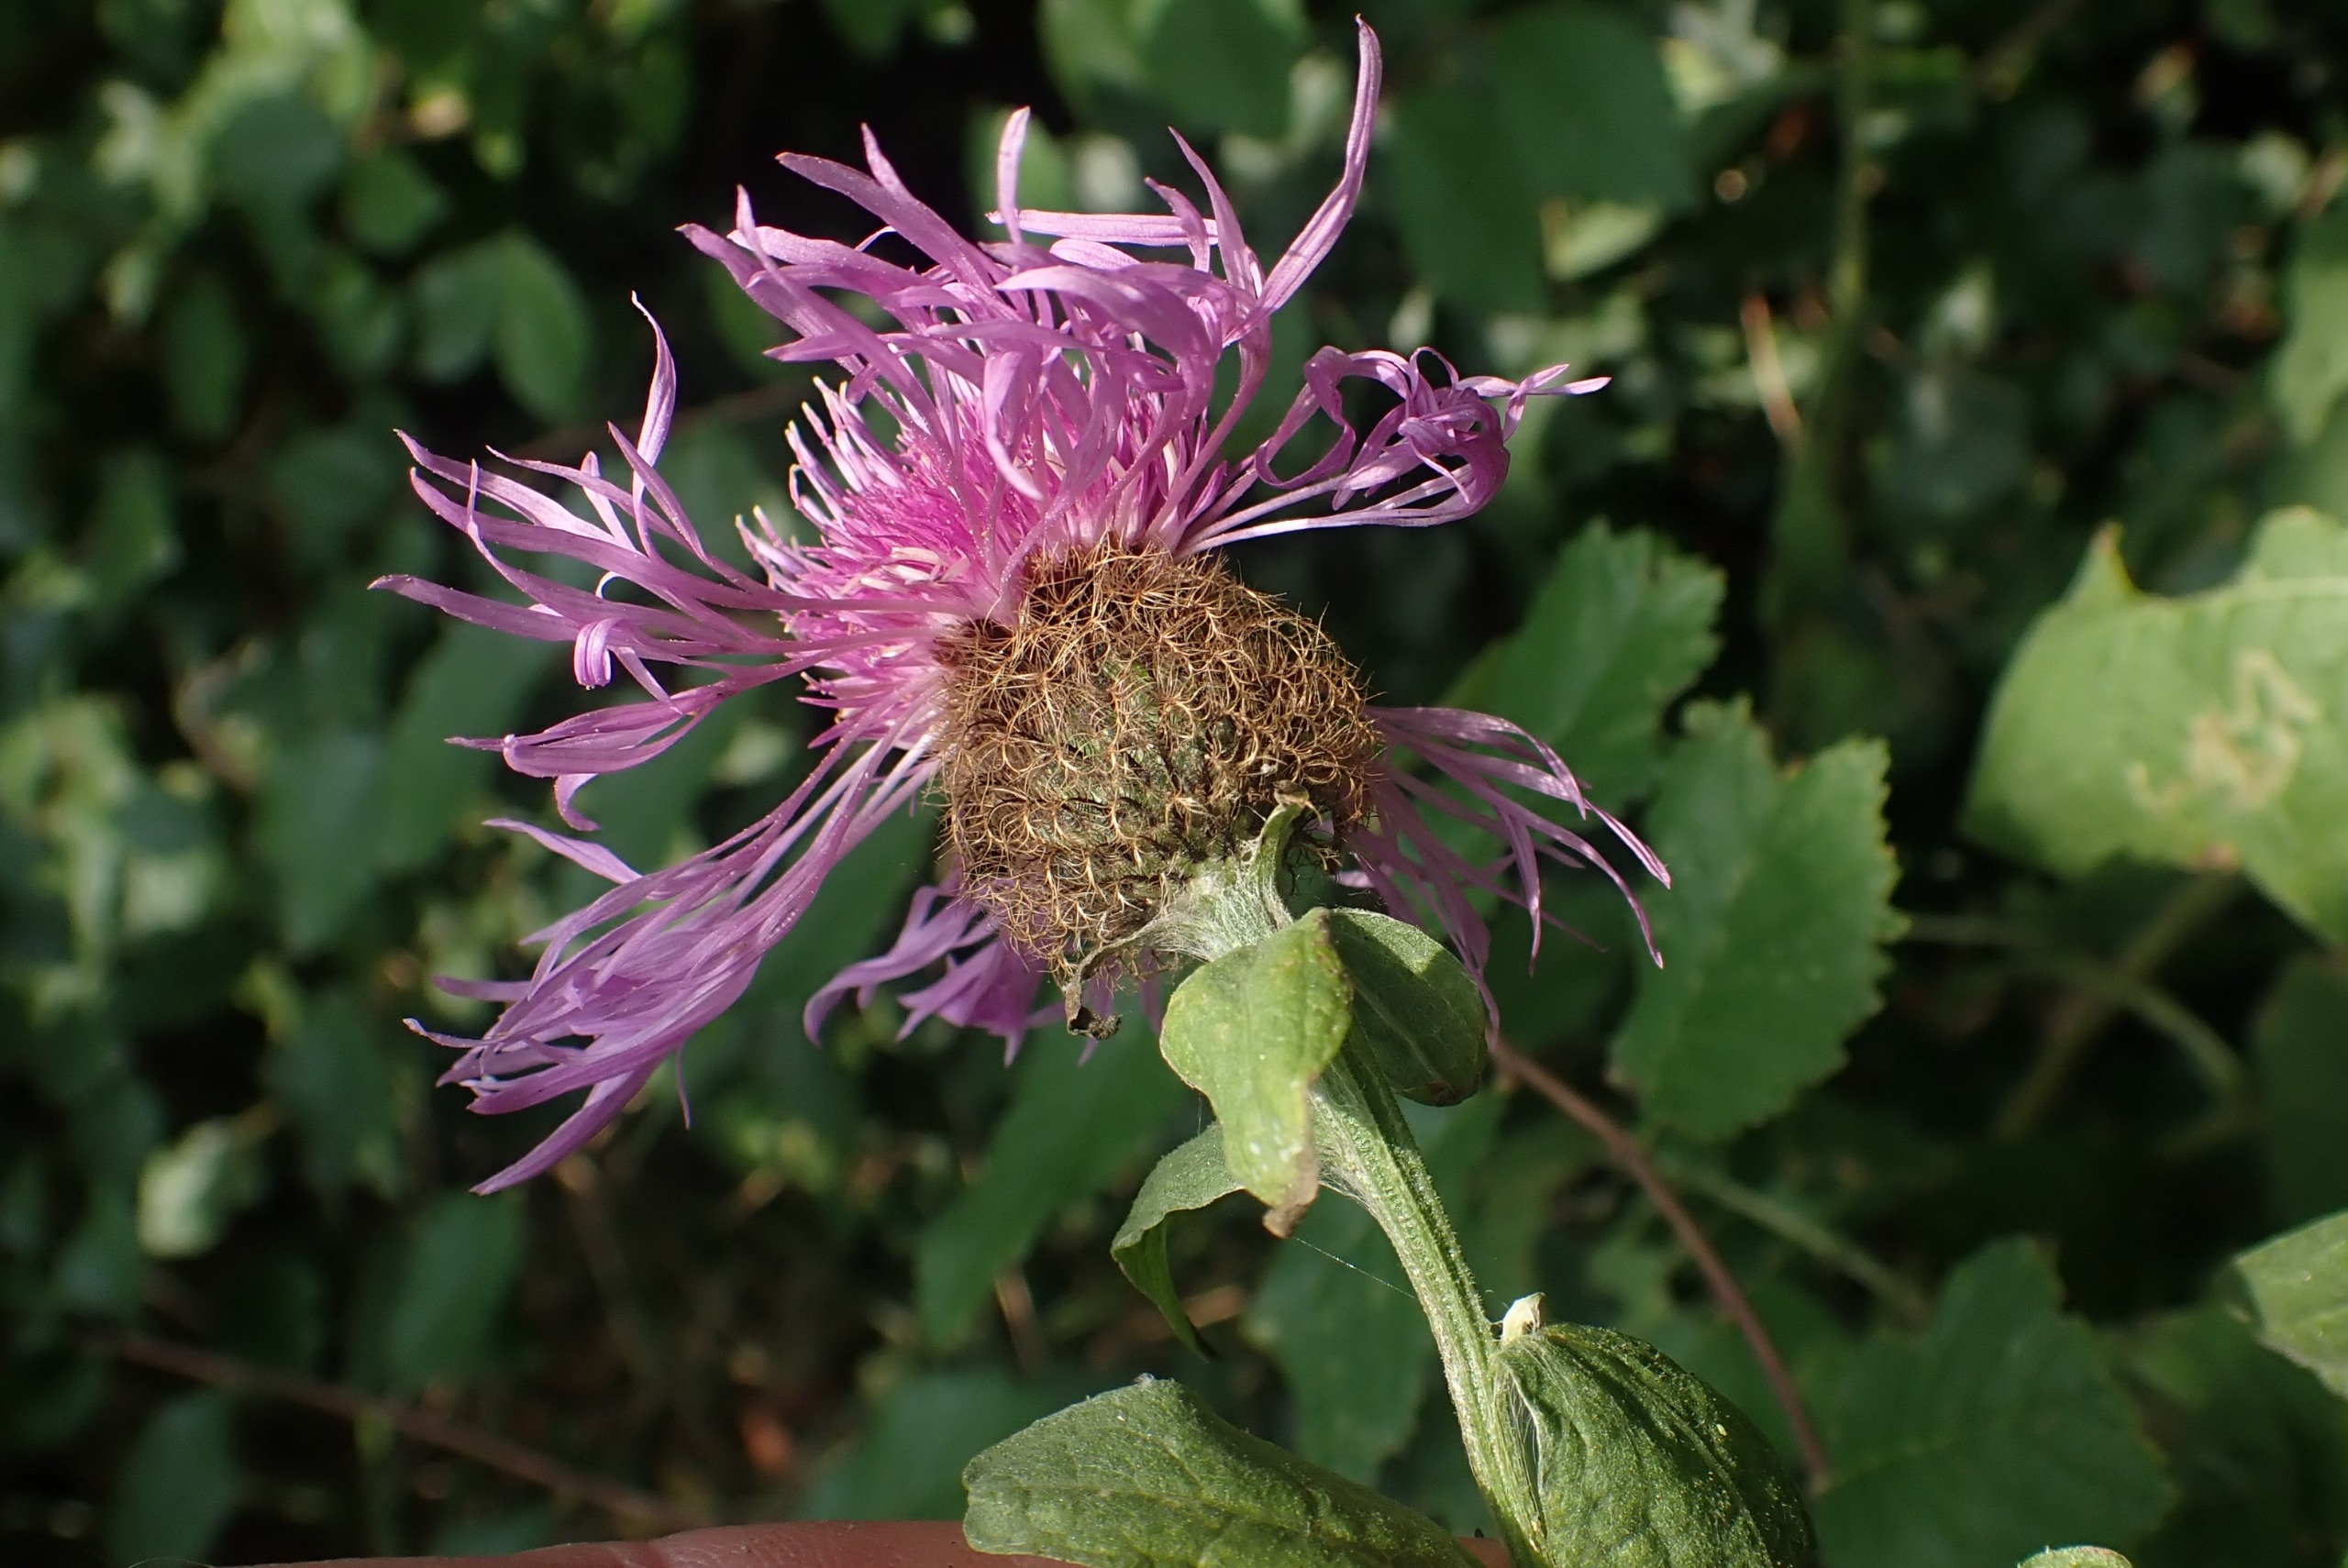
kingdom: Plantae
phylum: Tracheophyta
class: Magnoliopsida
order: Asterales
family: Asteraceae
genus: Centaurea
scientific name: Centaurea pseudophrygia
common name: Fjer-knopurt
